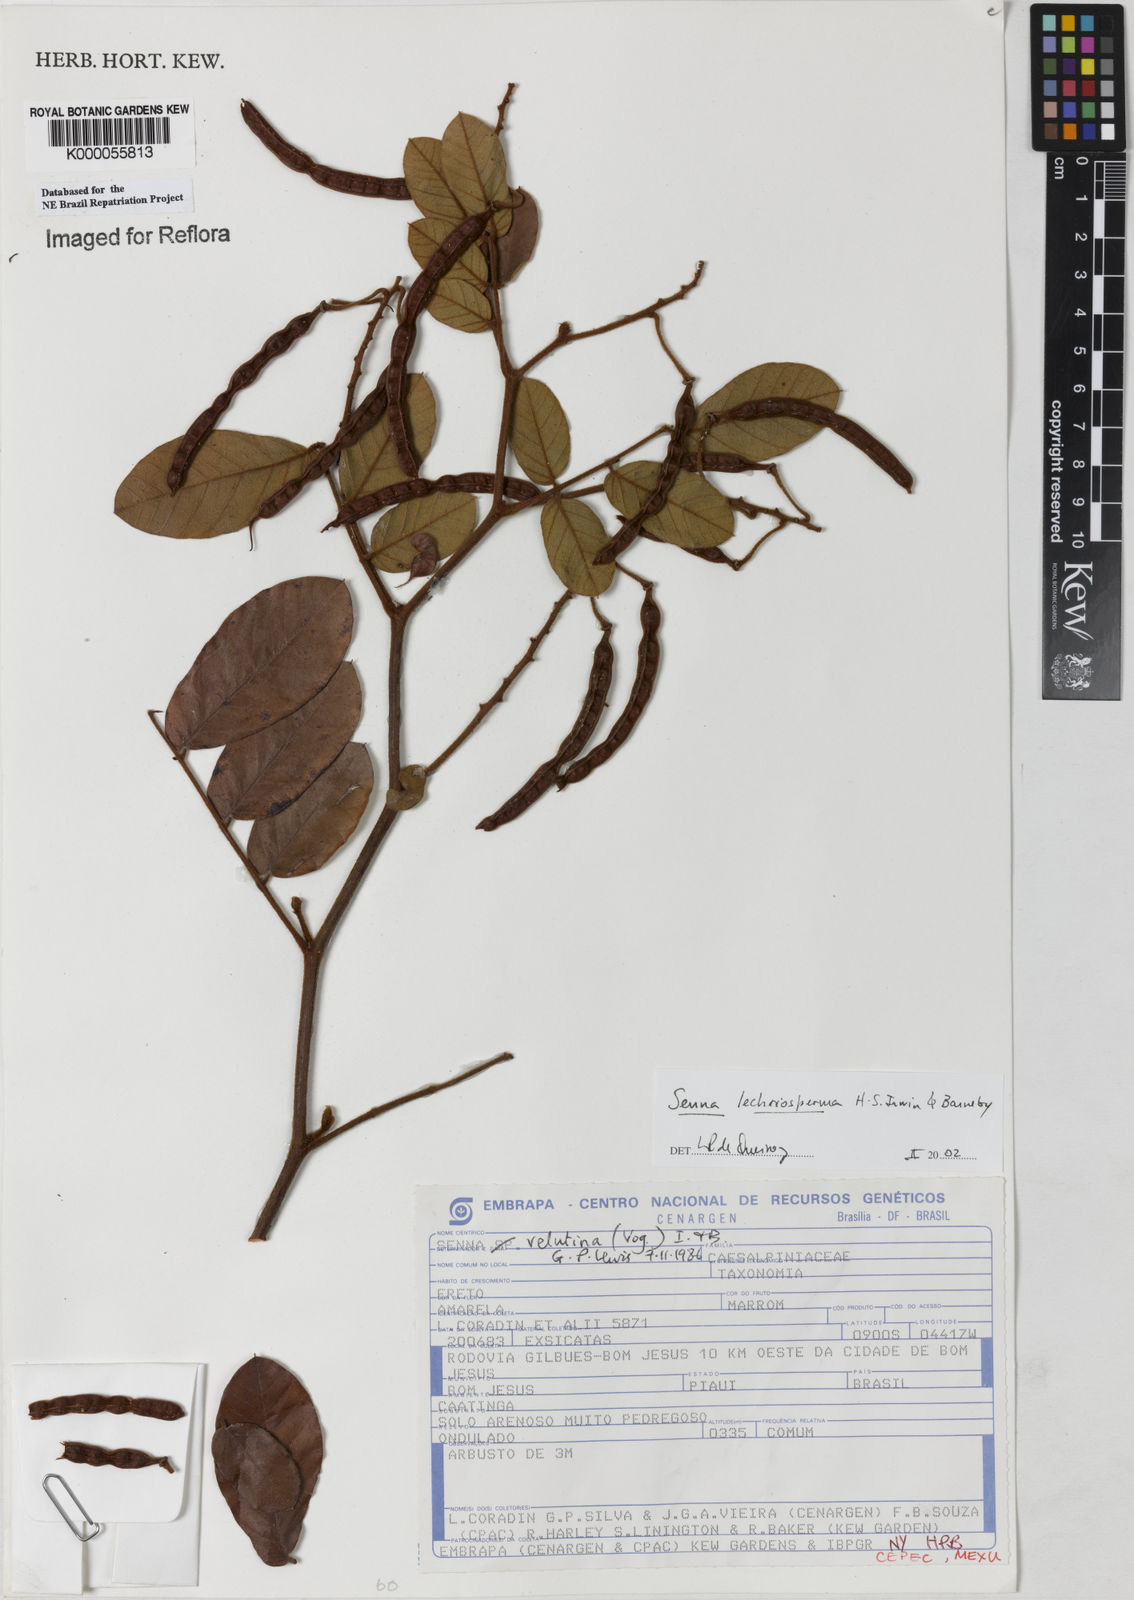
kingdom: Plantae
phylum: Tracheophyta
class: Magnoliopsida
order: Fabales
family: Fabaceae
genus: Senna
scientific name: Senna lechriosperma
